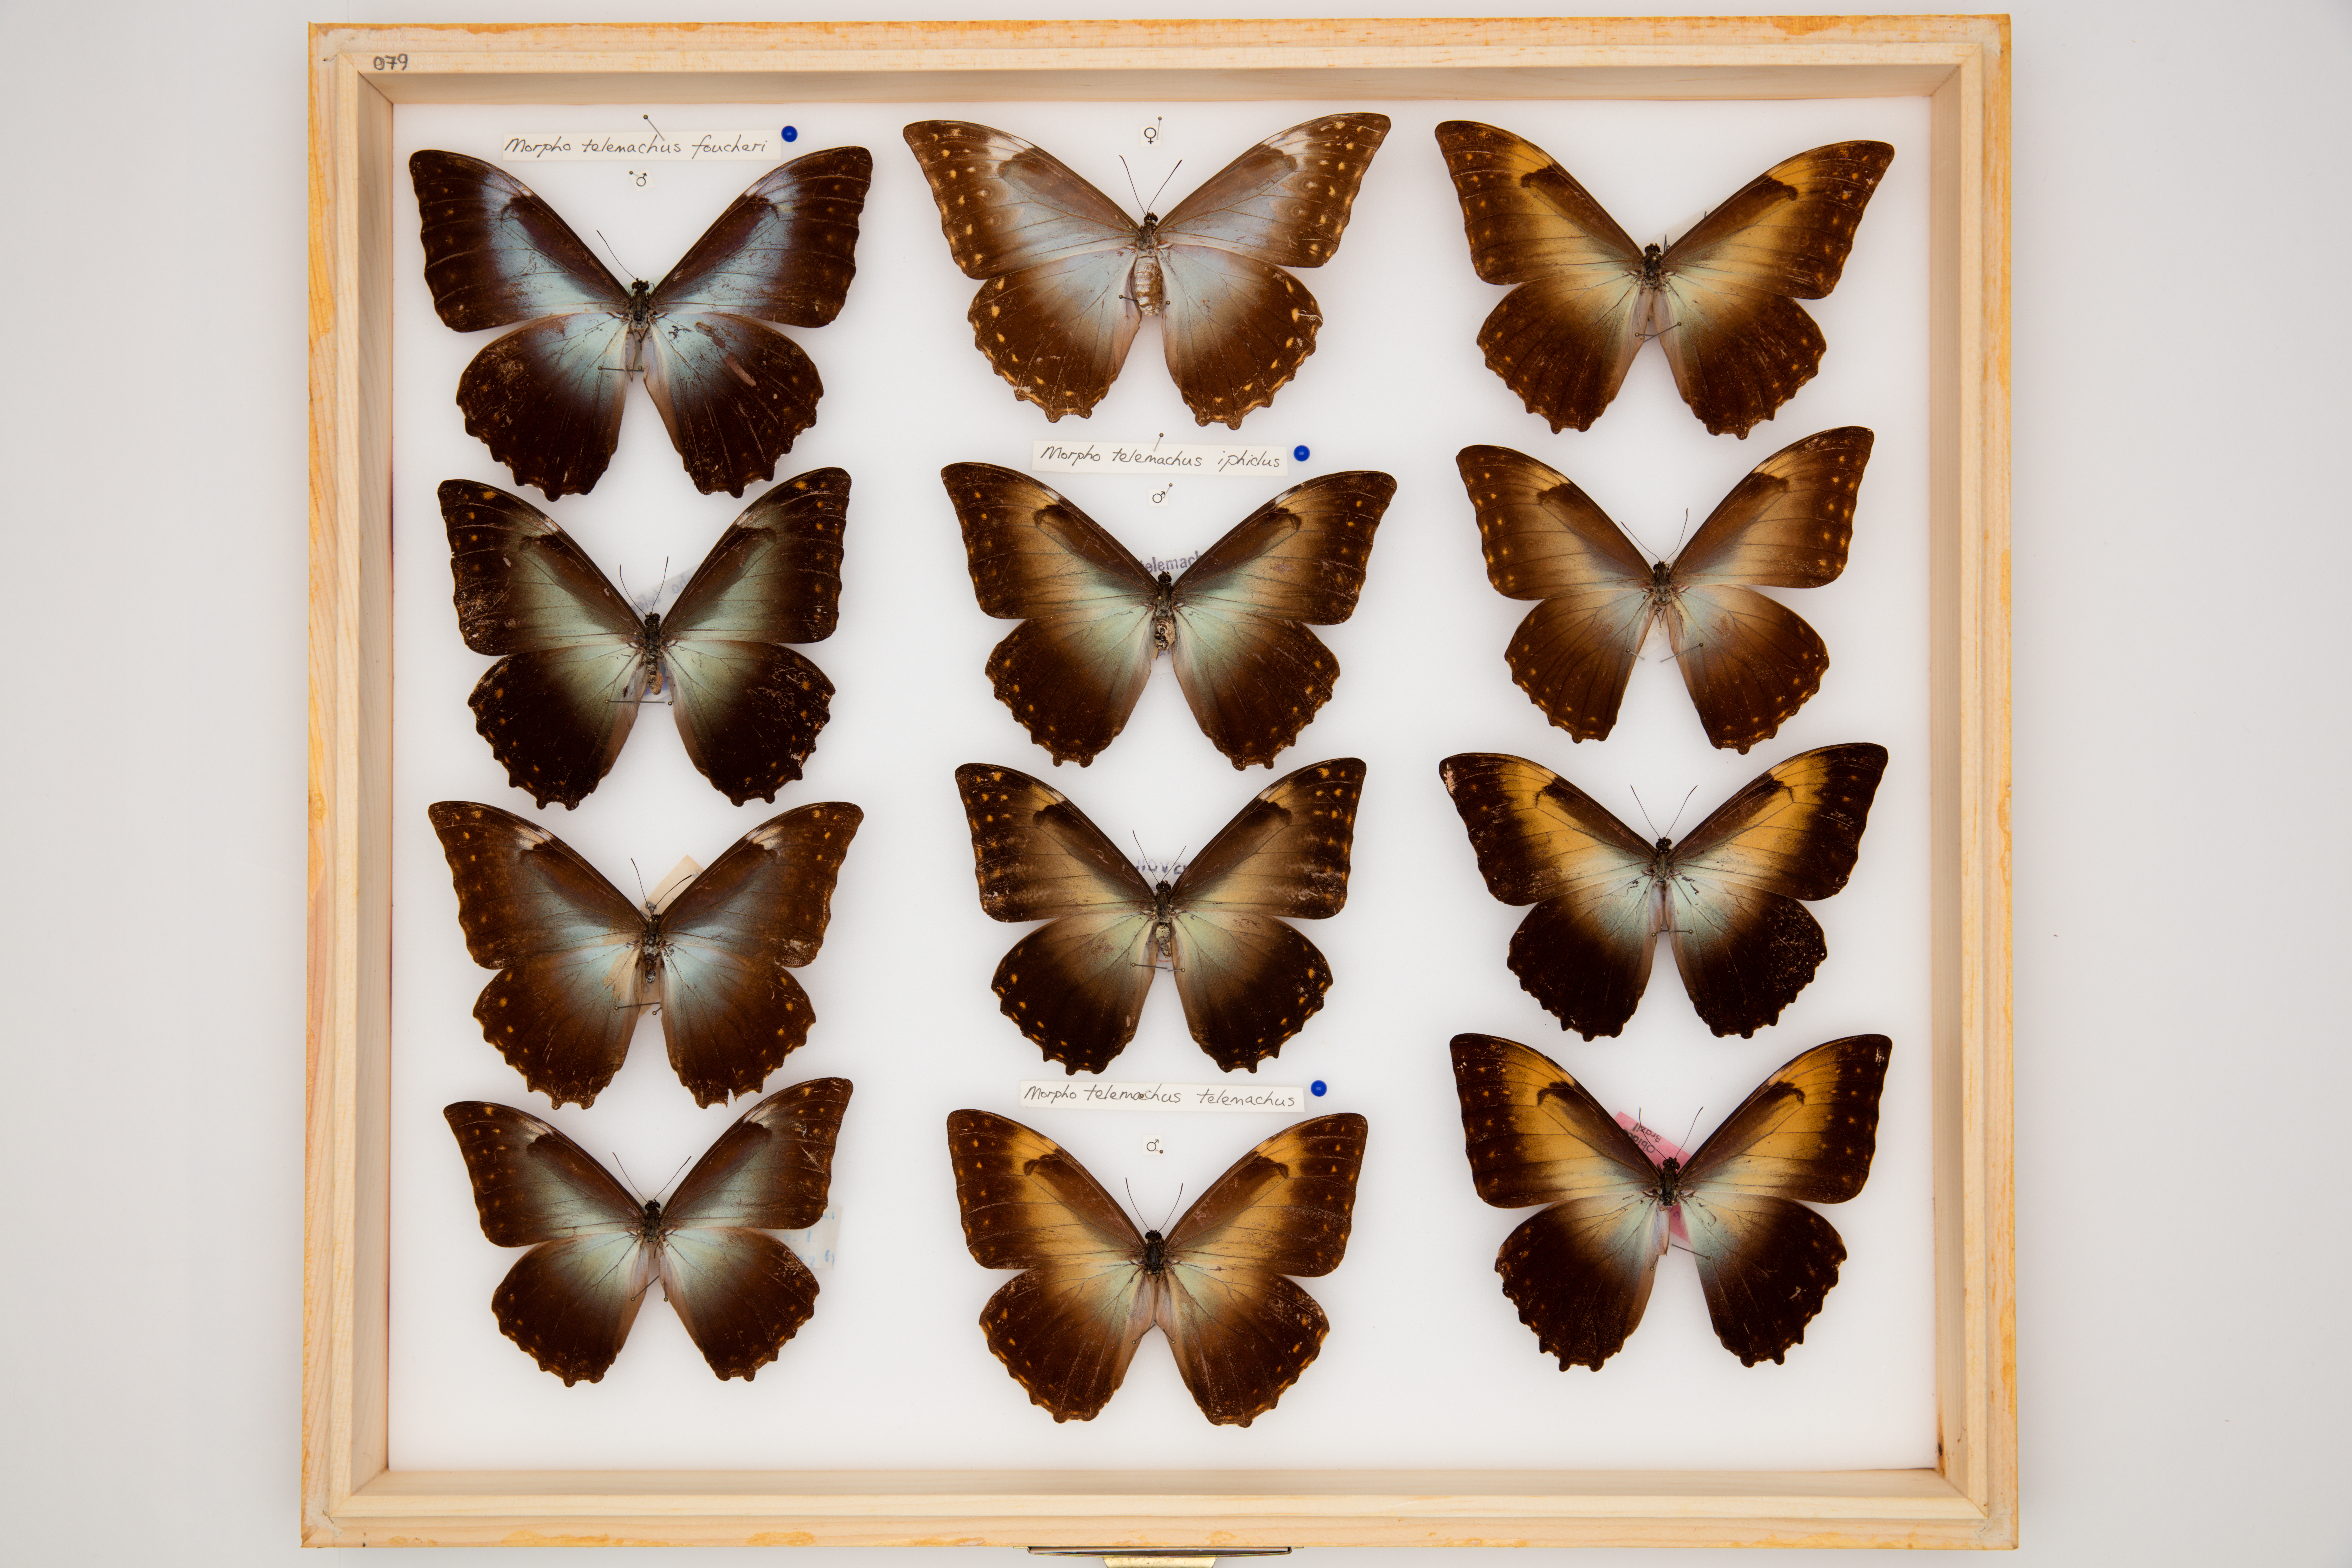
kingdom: Animalia
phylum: Arthropoda
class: Insecta
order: Lepidoptera
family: Nymphalidae
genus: Morpho
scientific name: Morpho telemachus
